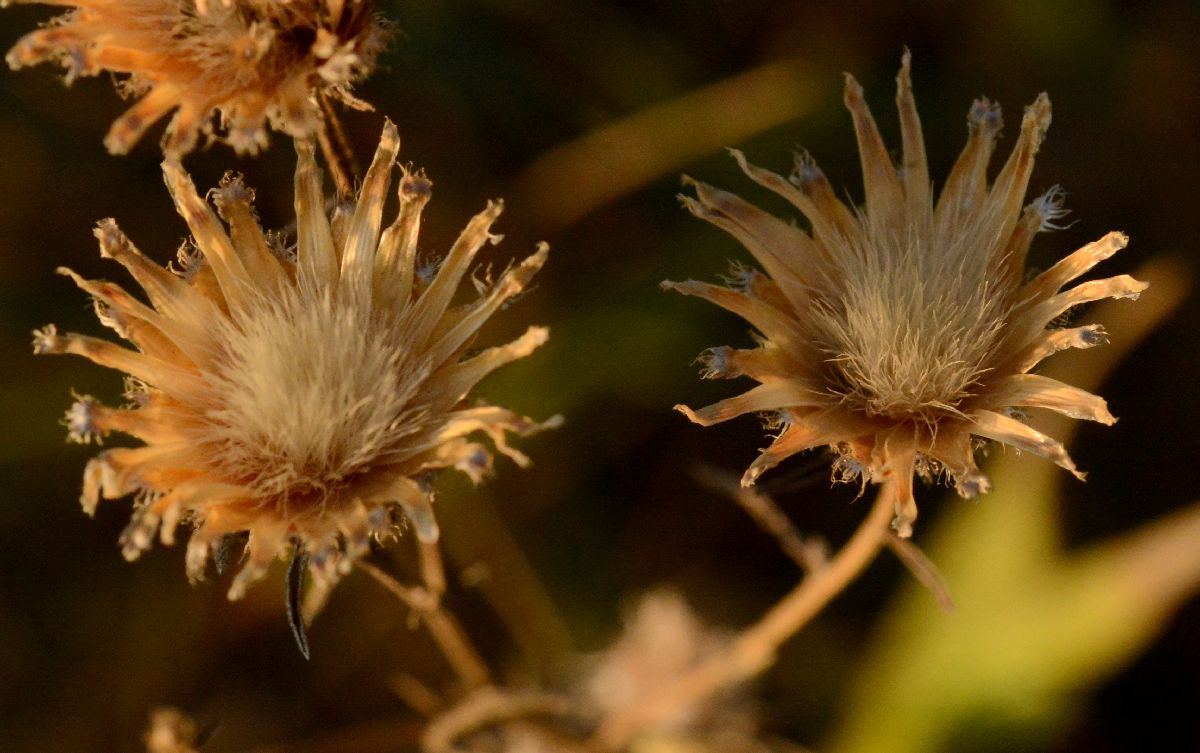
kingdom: Plantae
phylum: Tracheophyta
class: Magnoliopsida
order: Asterales
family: Asteraceae
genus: Centaurea
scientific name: Centaurea stoebe
